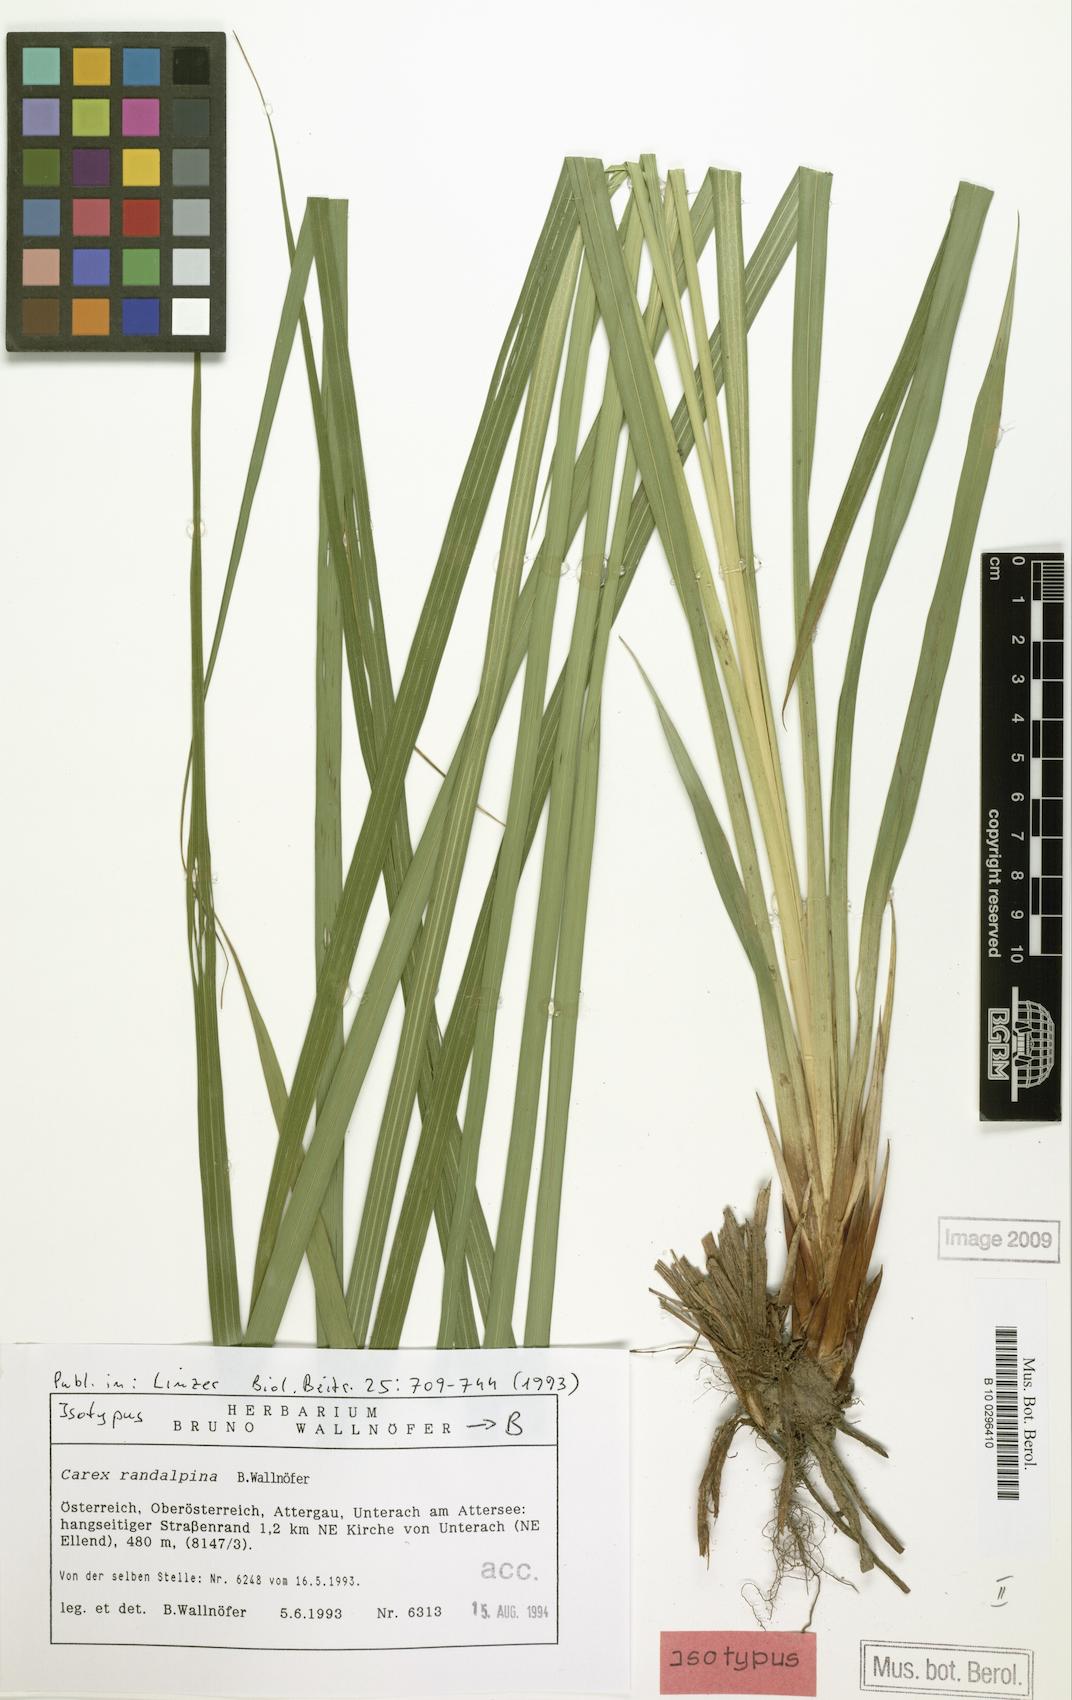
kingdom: Plantae
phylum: Tracheophyta
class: Liliopsida
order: Poales
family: Cyperaceae
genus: Carex
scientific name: Carex randalpina
